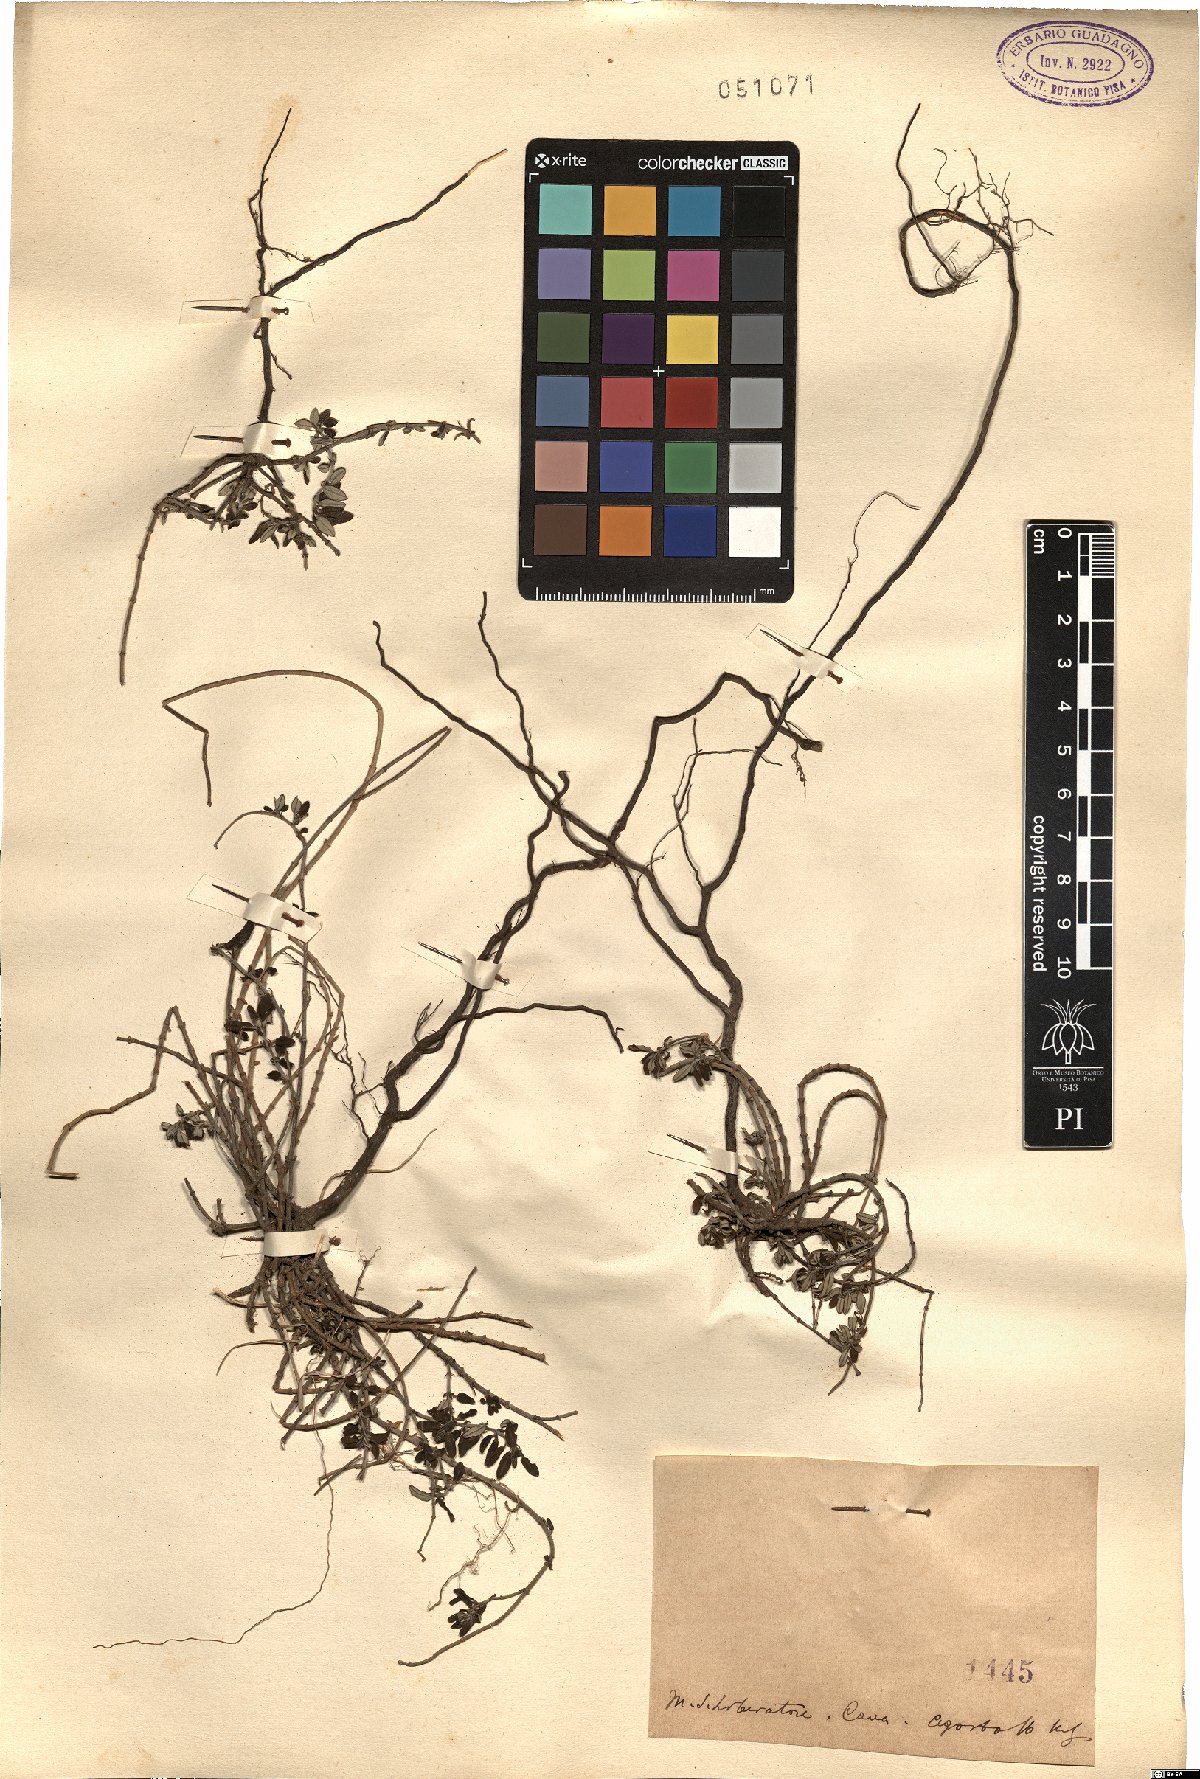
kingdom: Plantae
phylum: Tracheophyta
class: Magnoliopsida
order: Malvales
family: Cistaceae
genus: Helianthemum
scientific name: Helianthemum
